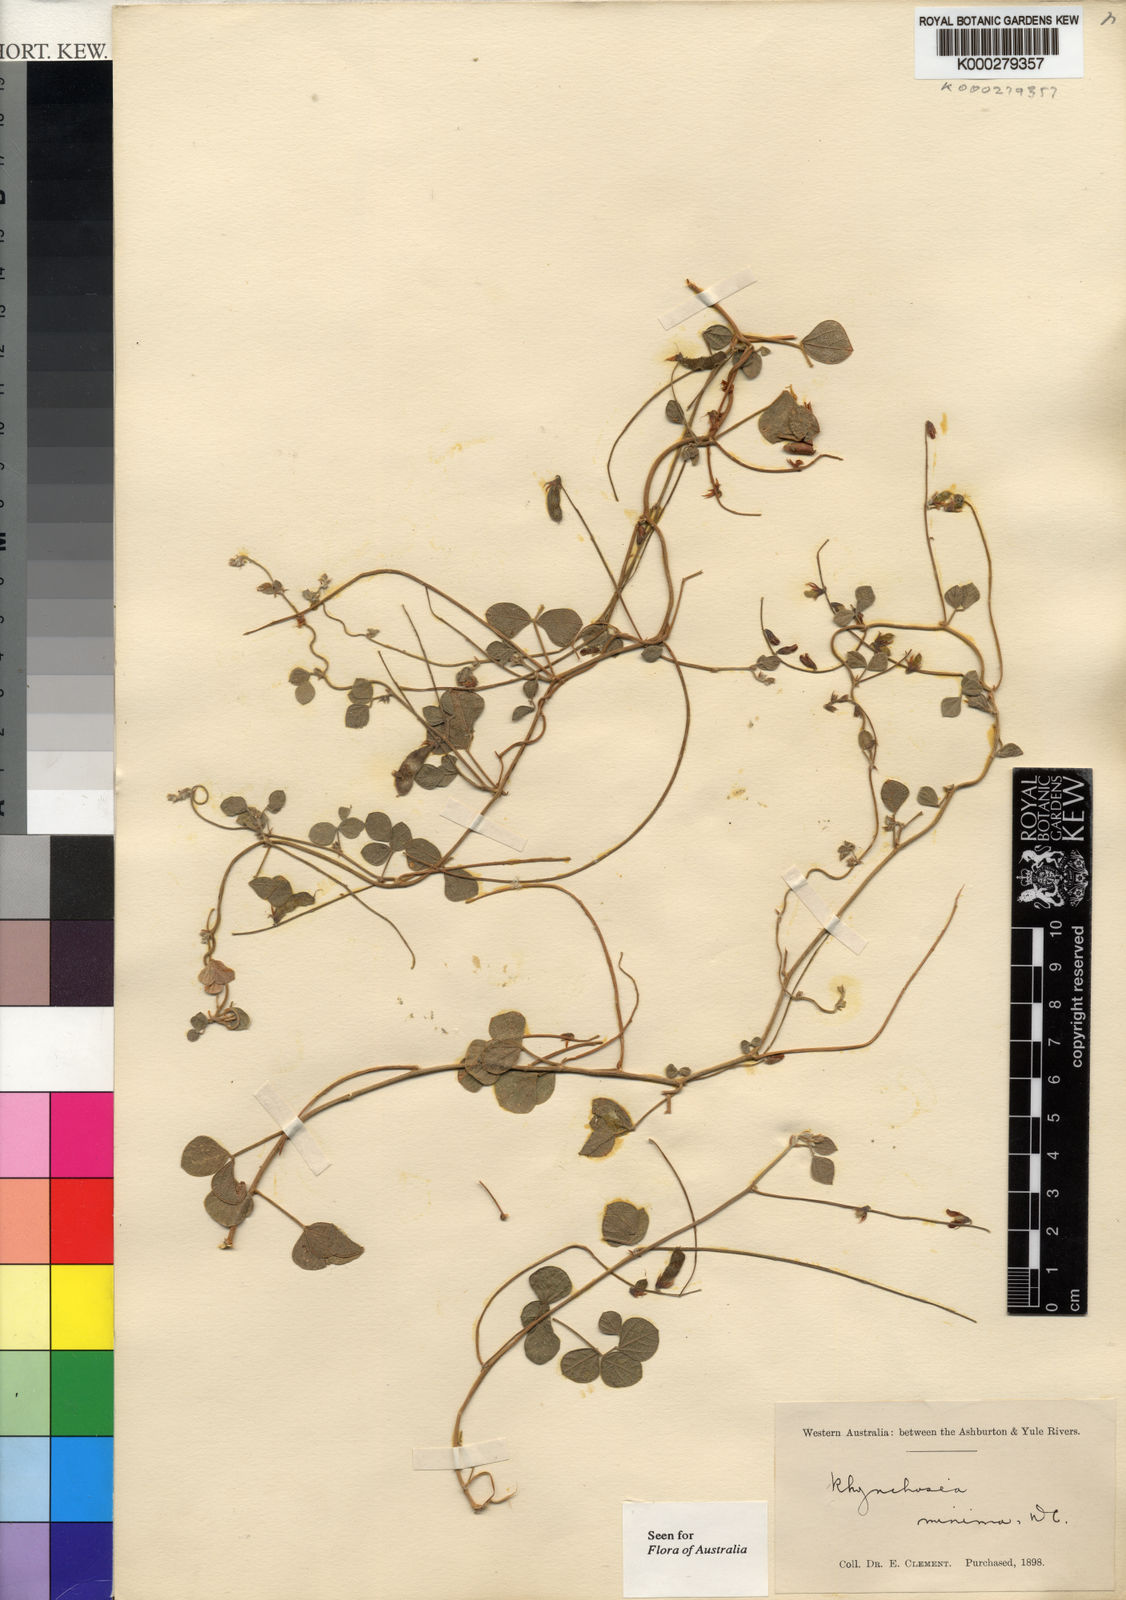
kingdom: Plantae
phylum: Tracheophyta
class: Magnoliopsida
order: Fabales
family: Fabaceae
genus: Rhynchosia
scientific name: Rhynchosia minima
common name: Least snoutbean
